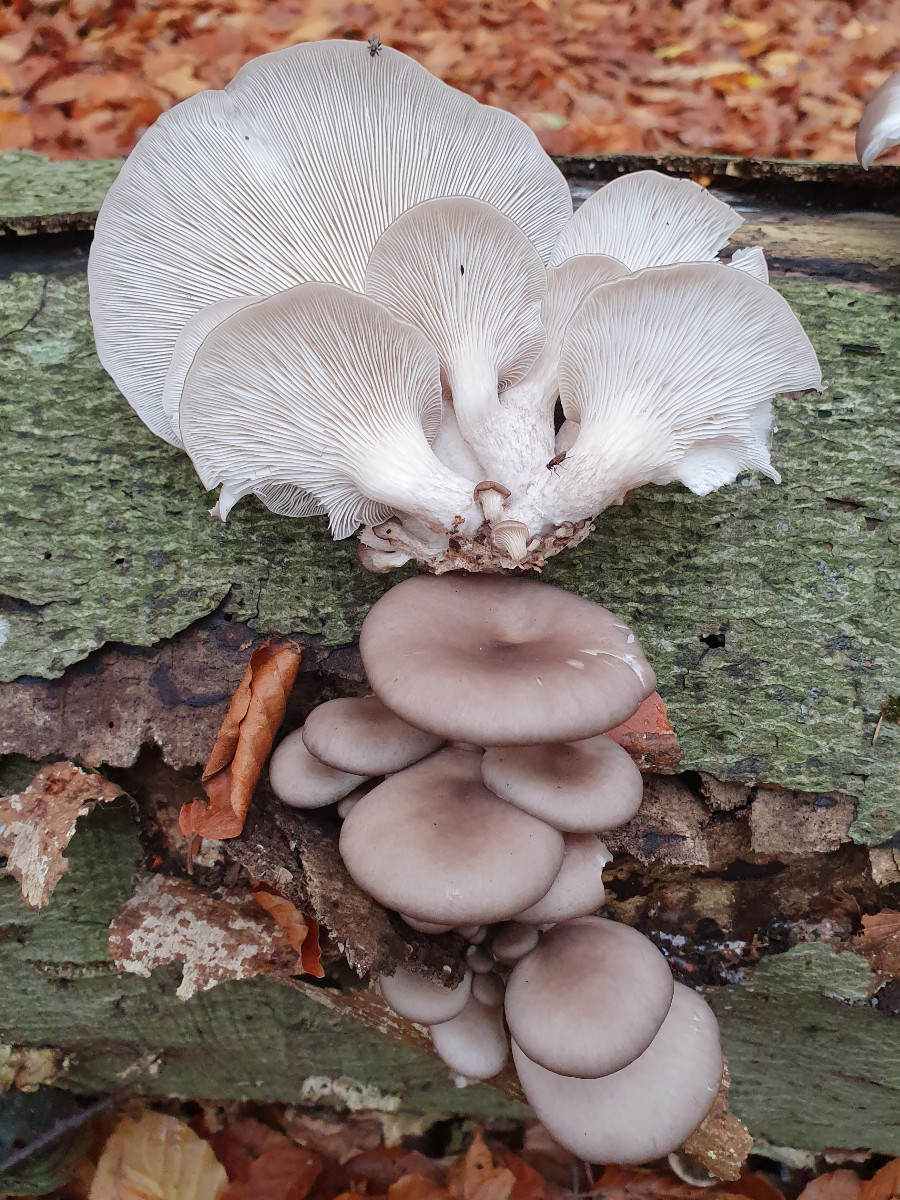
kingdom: Fungi
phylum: Basidiomycota
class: Agaricomycetes
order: Agaricales
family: Pleurotaceae
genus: Pleurotus
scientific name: Pleurotus ostreatus
